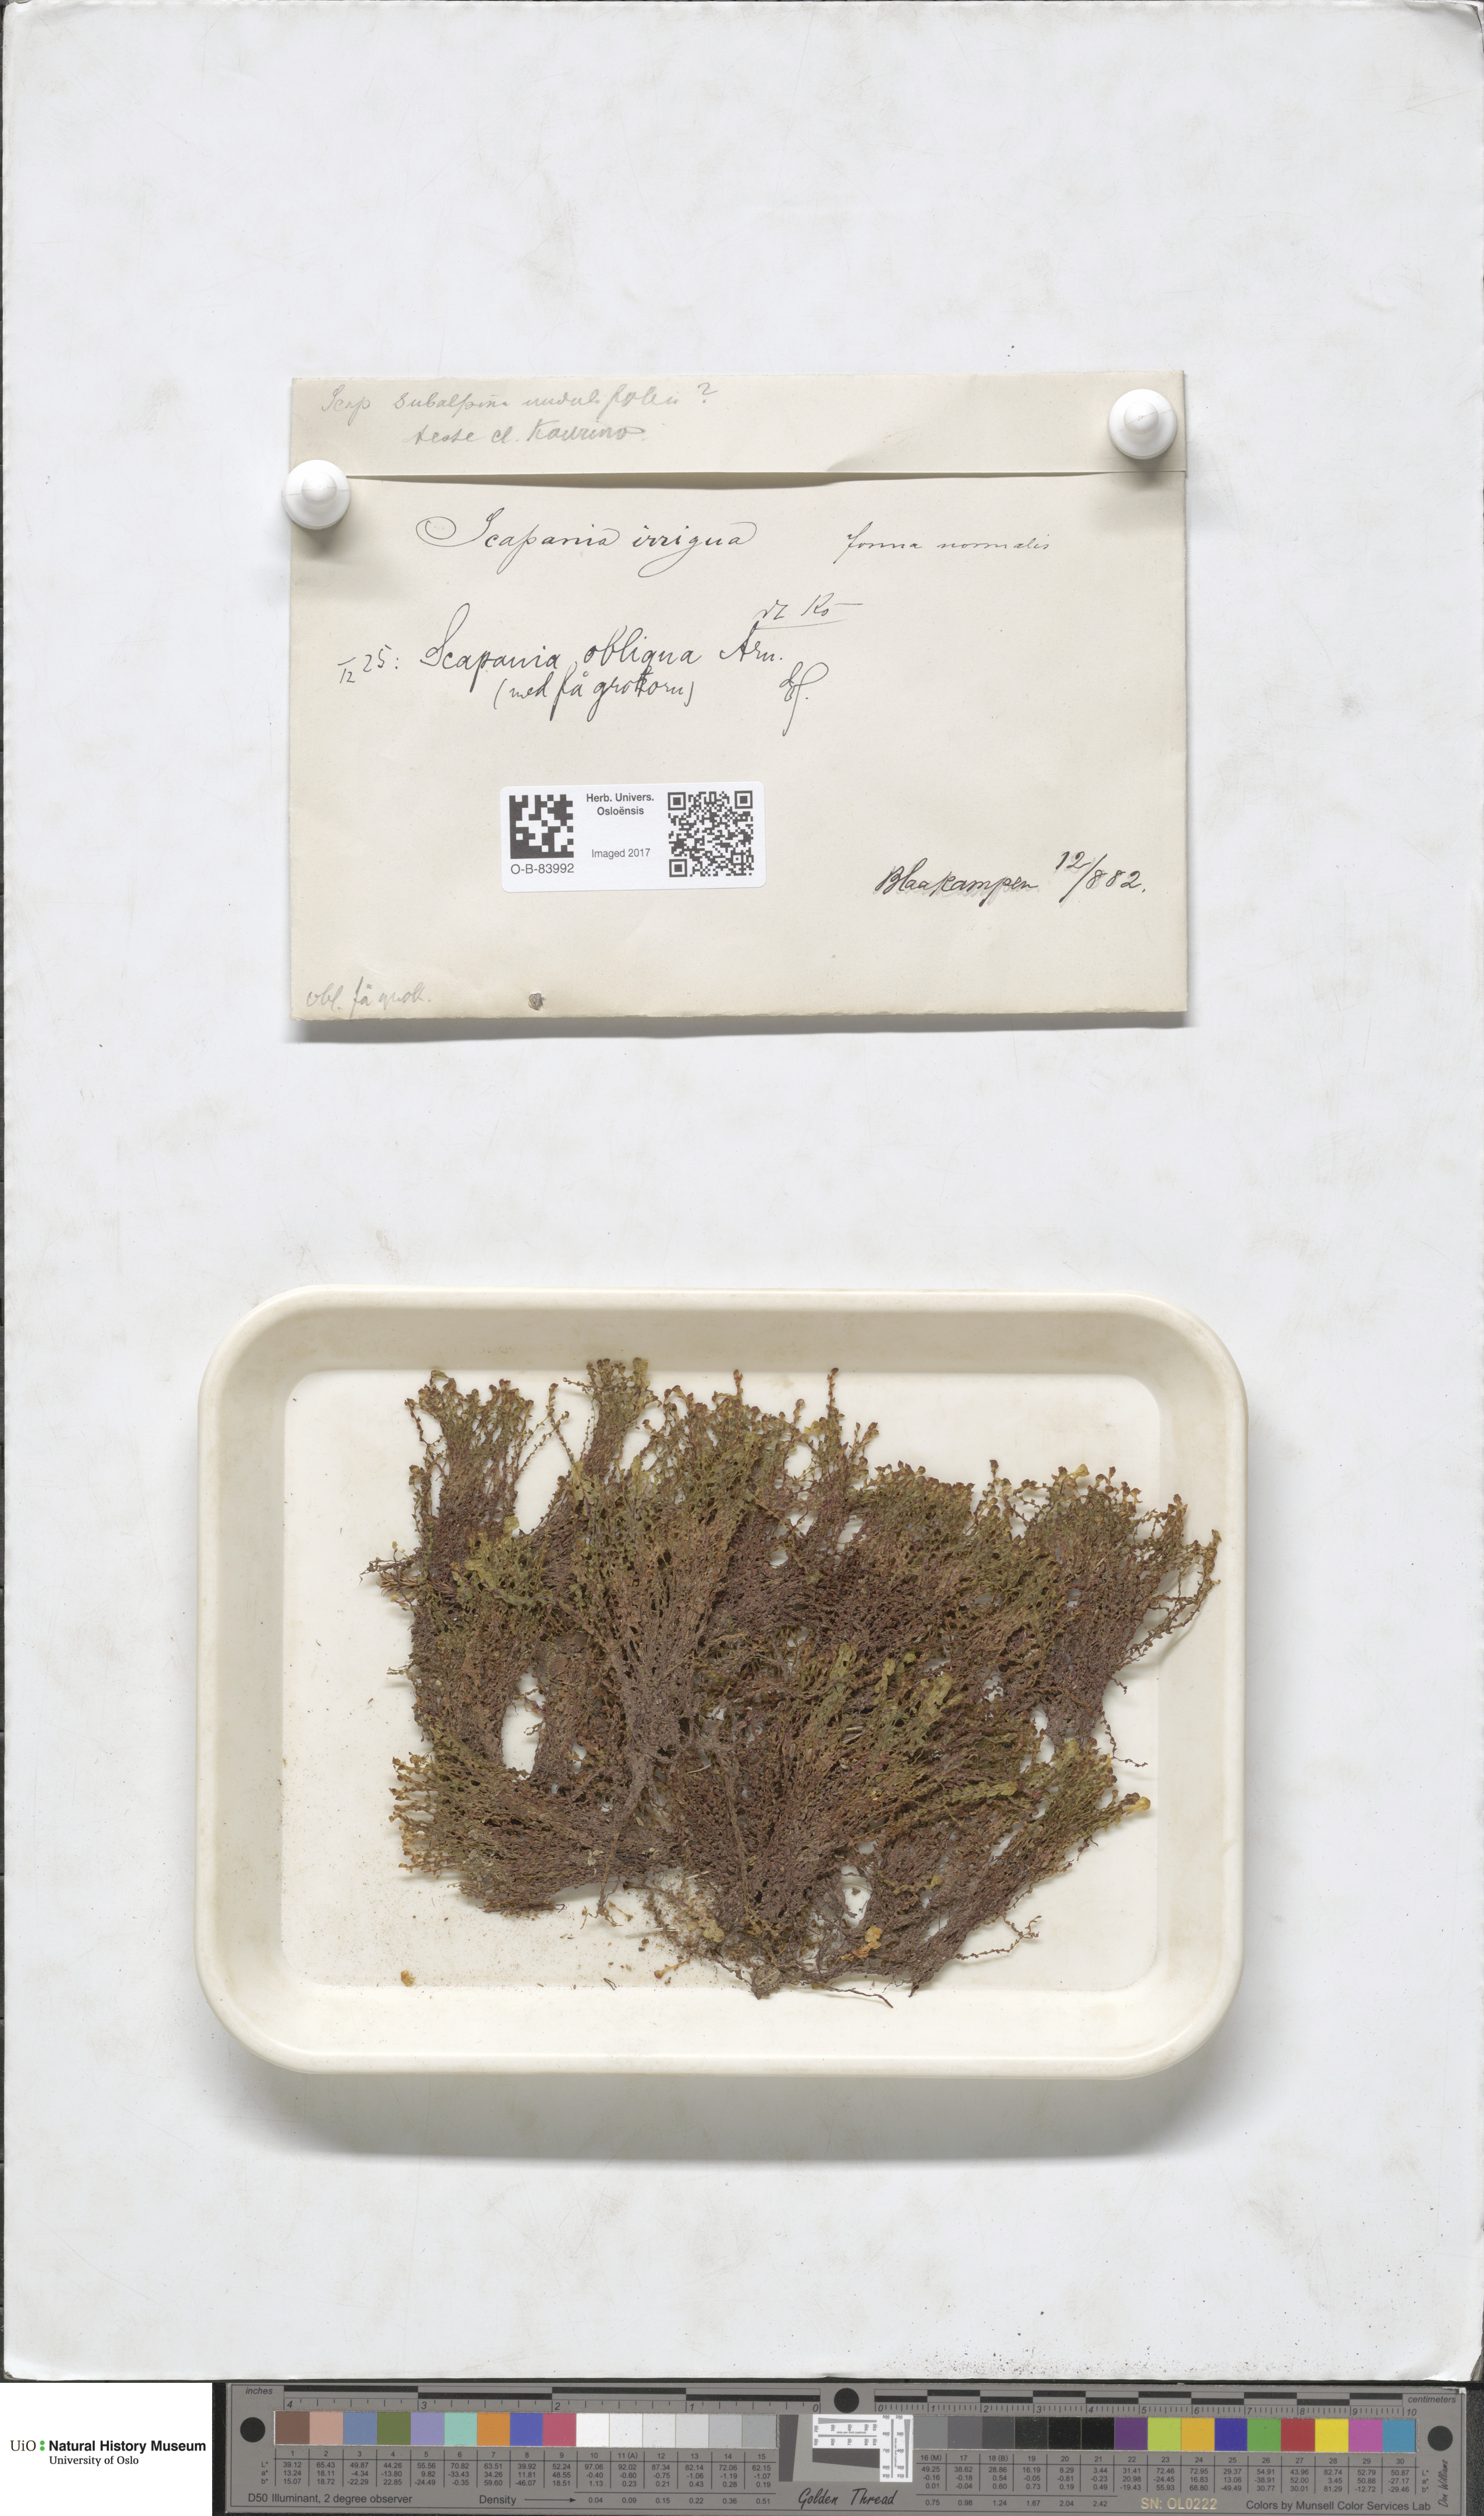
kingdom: Plantae
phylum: Marchantiophyta
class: Jungermanniopsida
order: Jungermanniales
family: Scapaniaceae
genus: Scapania
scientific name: Scapania uliginosa
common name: Marsh earwort
